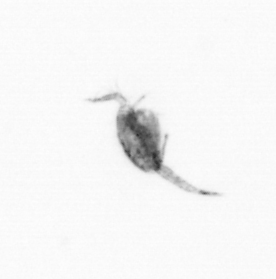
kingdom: Animalia
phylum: Arthropoda
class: Copepoda
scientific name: Copepoda
